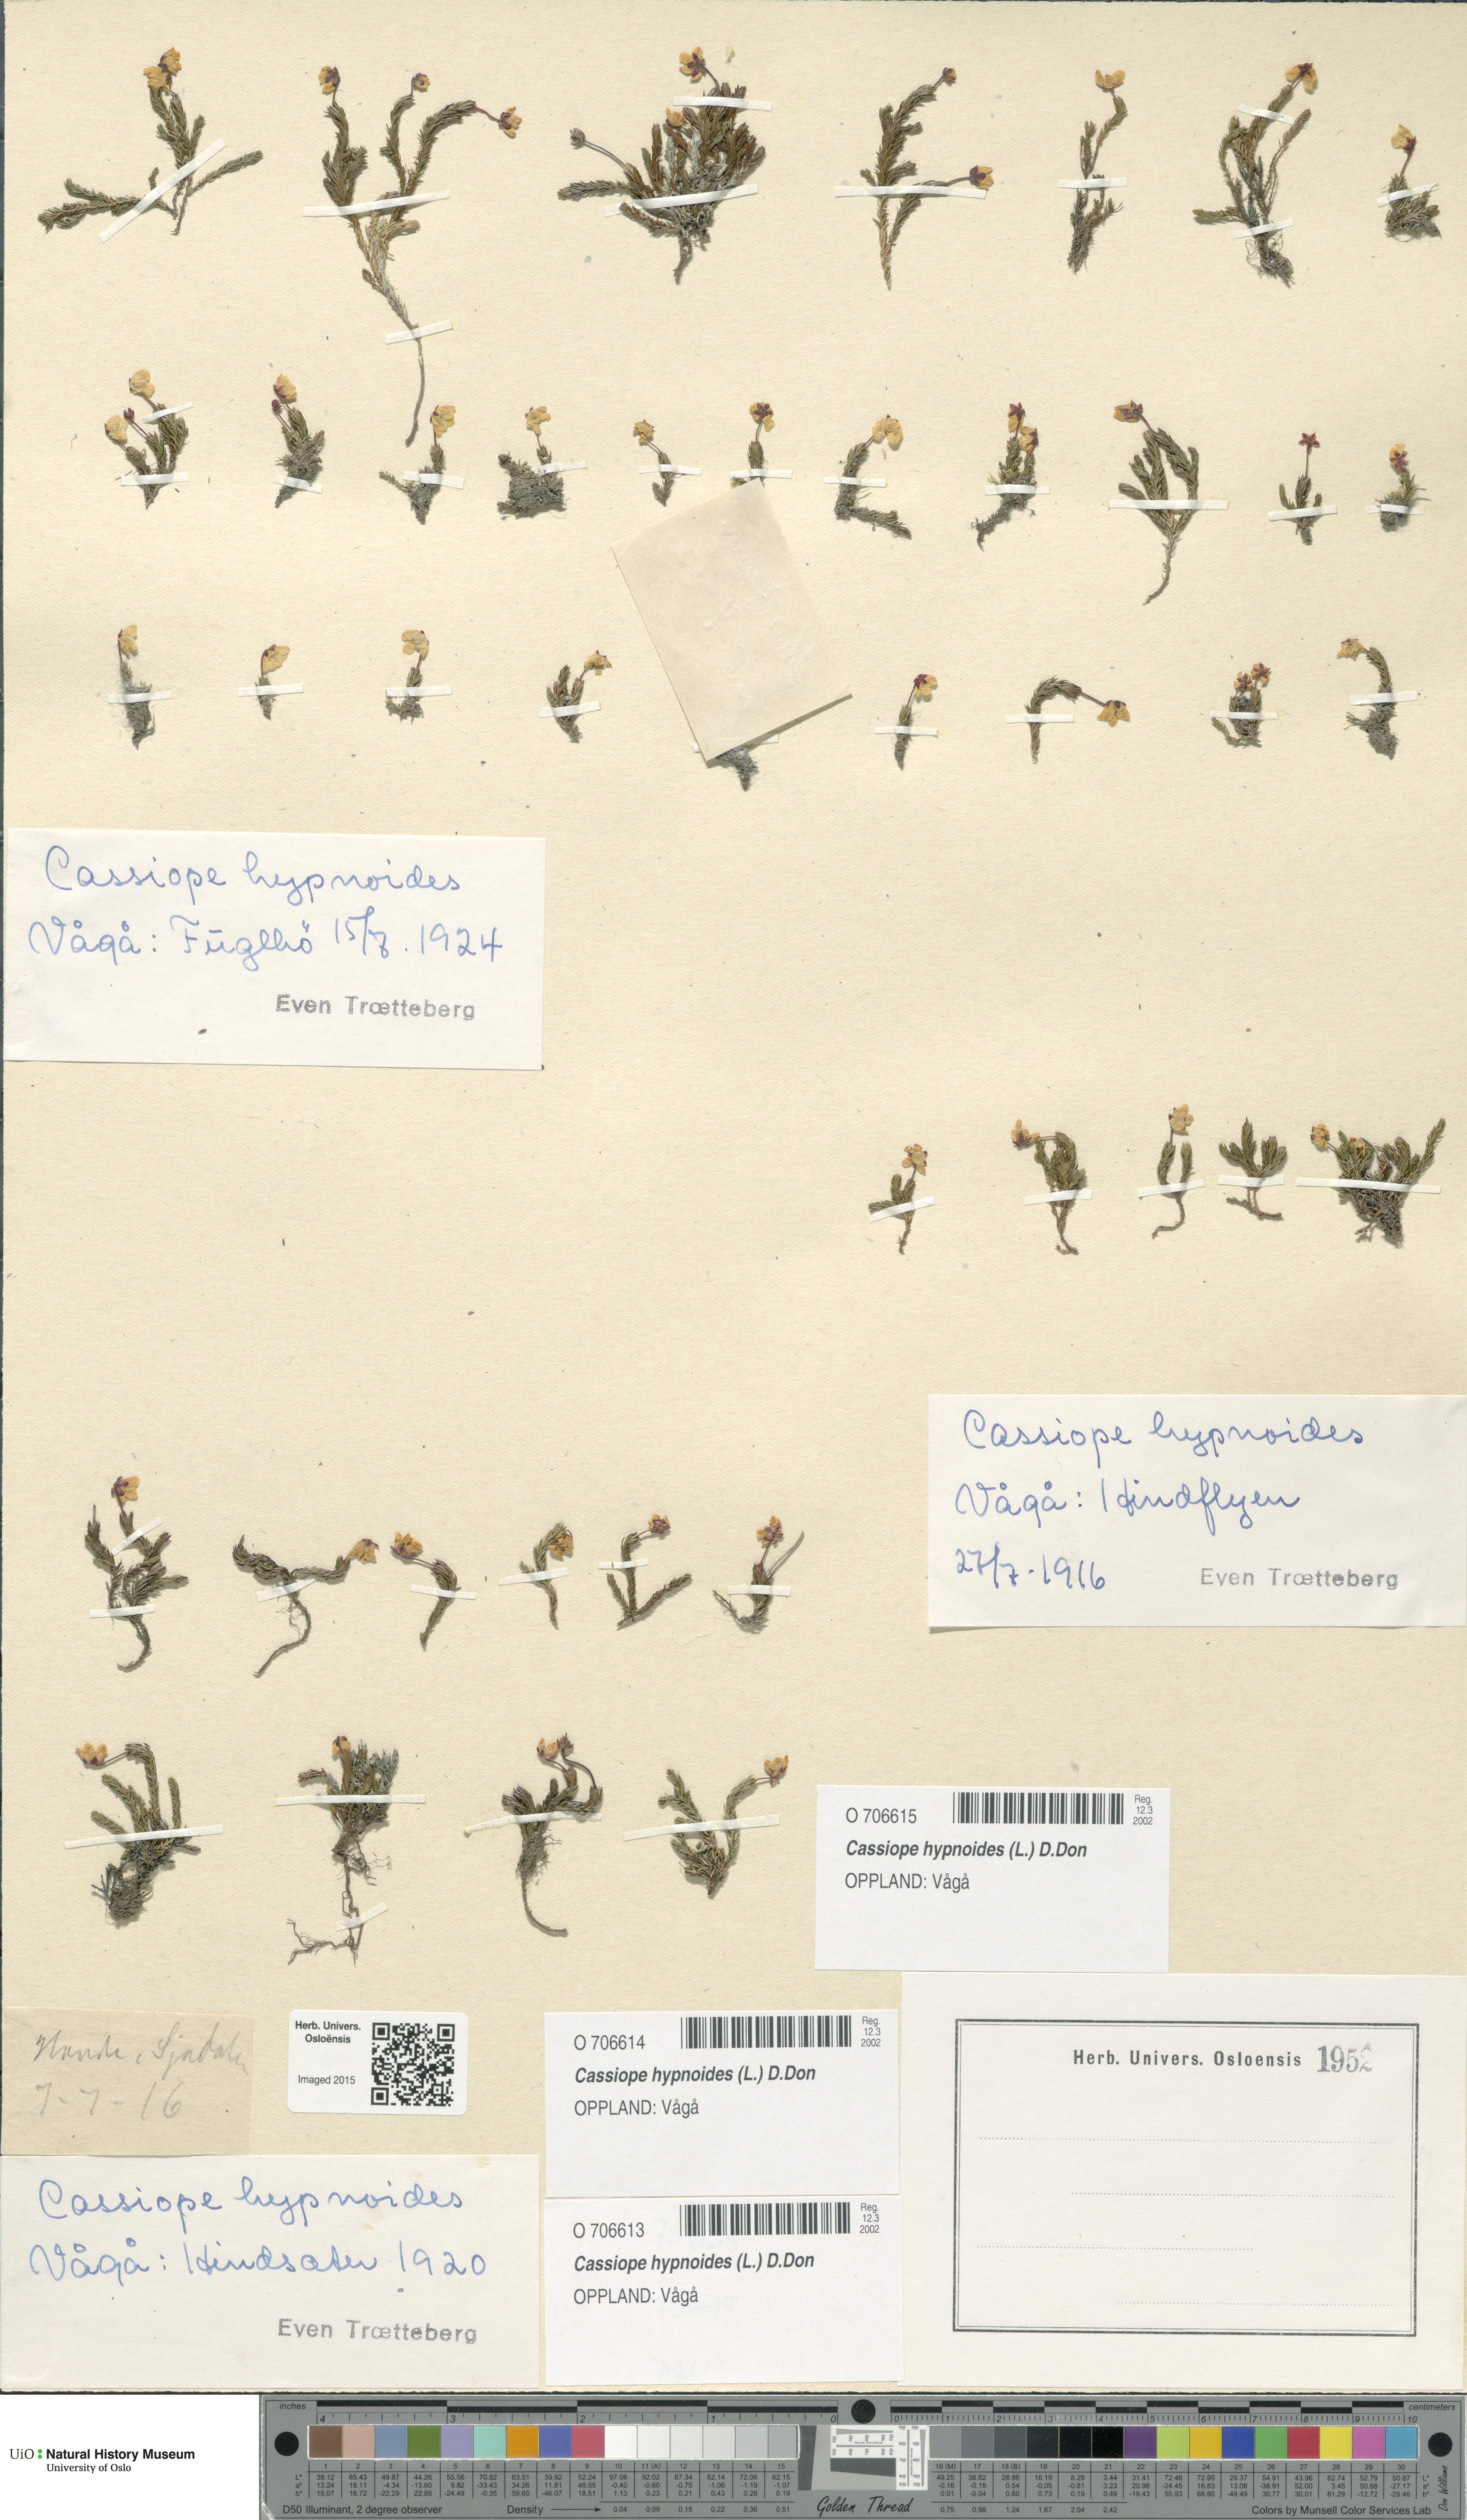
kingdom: Plantae
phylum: Tracheophyta
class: Magnoliopsida
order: Ericales
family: Ericaceae
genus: Harrimanella
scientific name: Harrimanella hypnoides
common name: Moss bell heather
